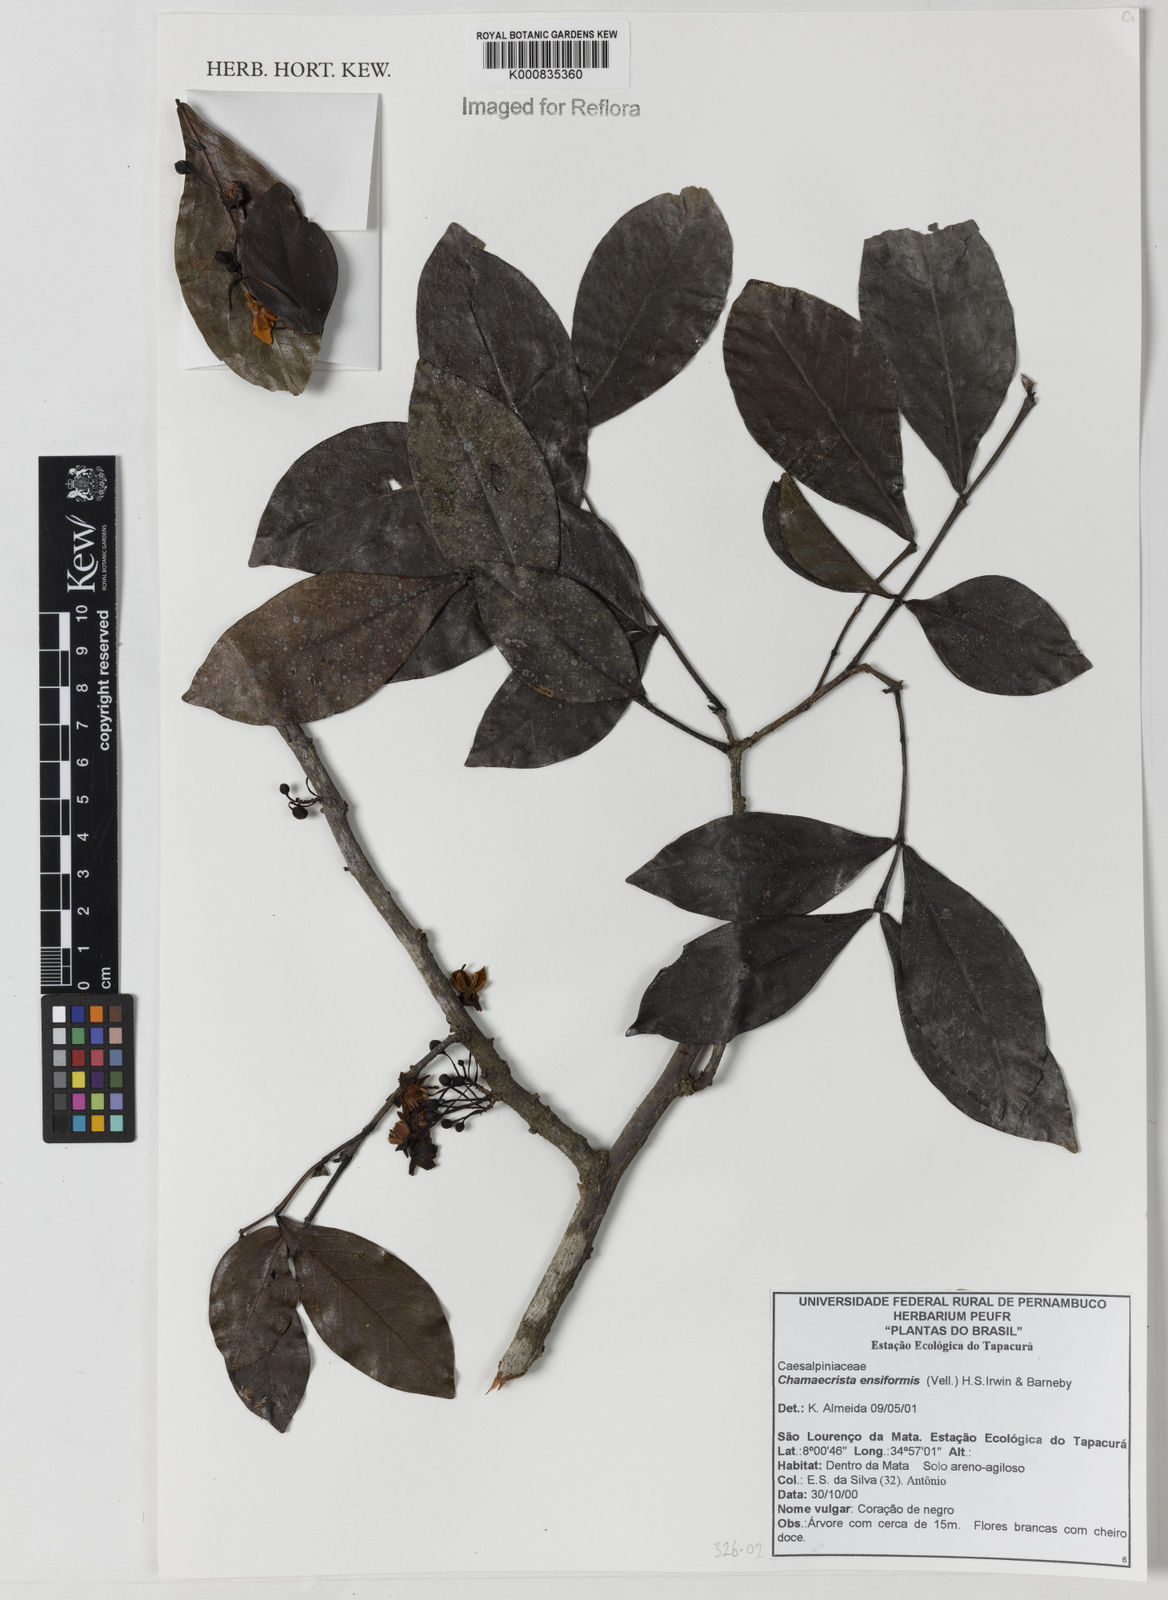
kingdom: Plantae
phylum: Tracheophyta
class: Magnoliopsida
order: Fabales
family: Fabaceae
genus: Chamaecrista
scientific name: Chamaecrista ensiformis
